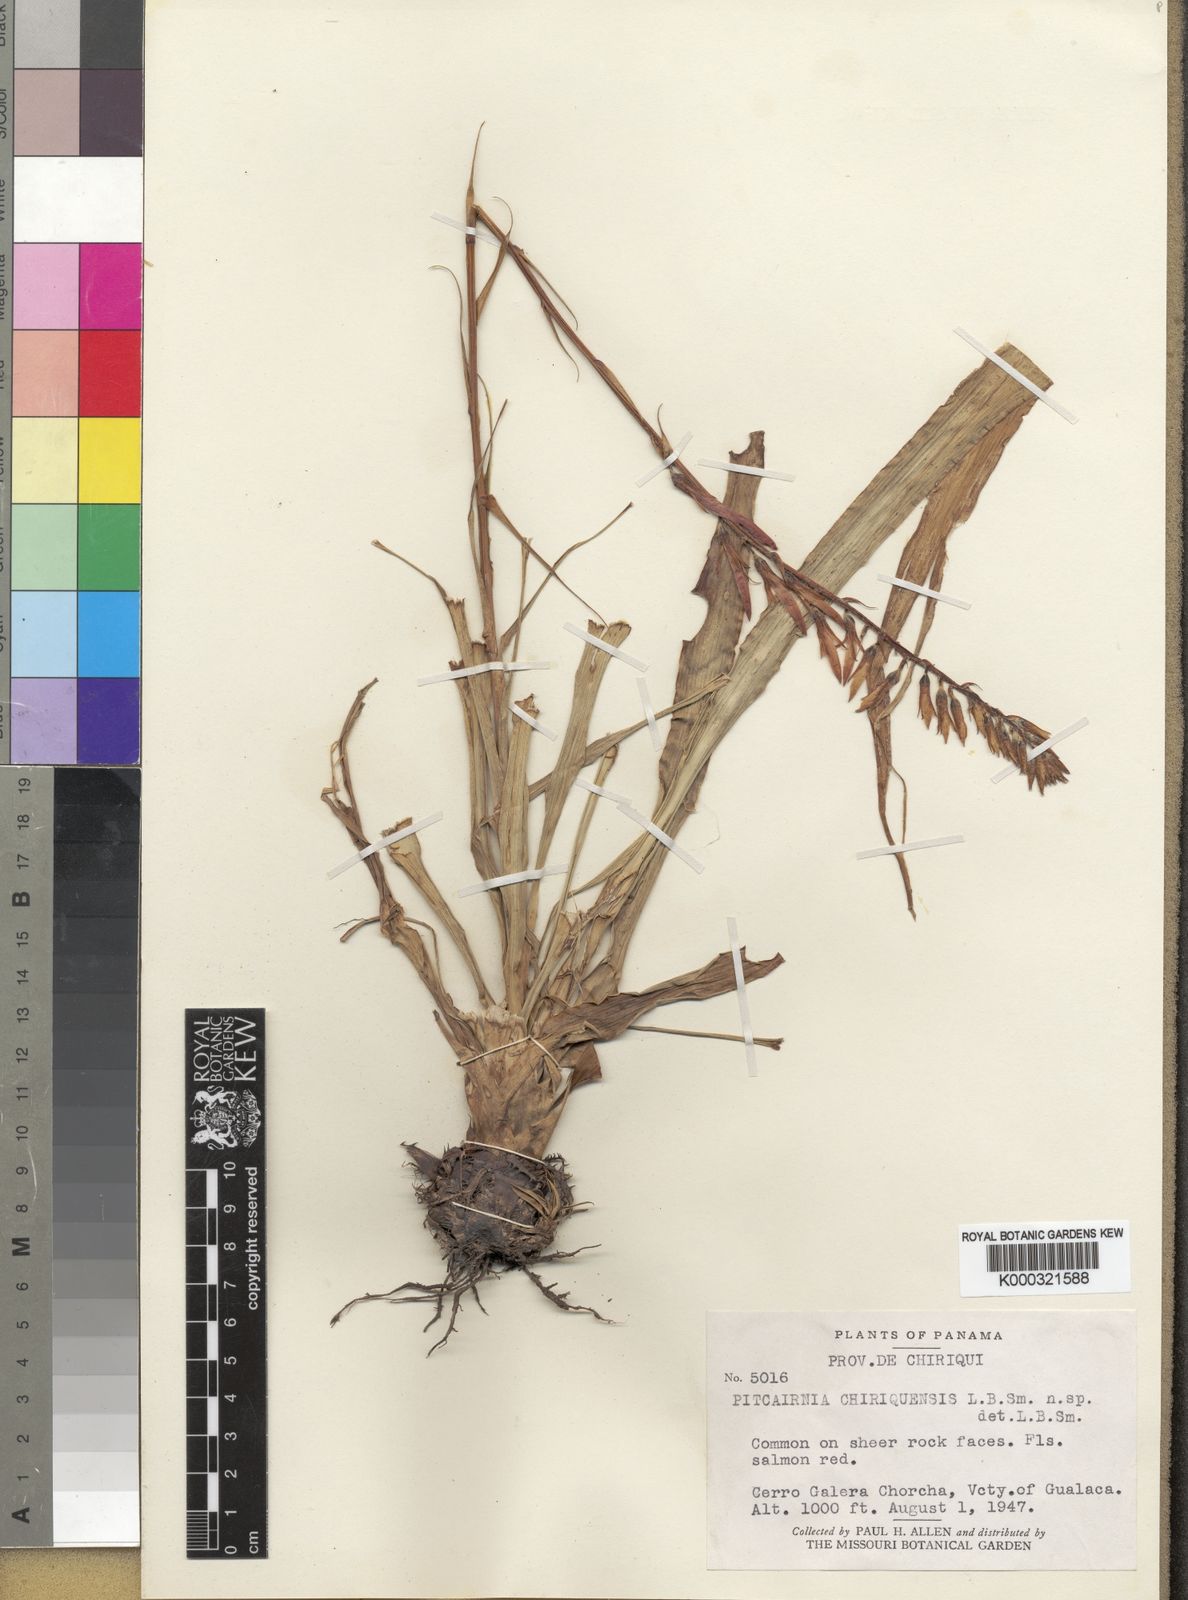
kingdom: Plantae
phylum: Tracheophyta
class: Liliopsida
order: Poales
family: Bromeliaceae
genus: Pitcairnia
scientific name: Pitcairnia chiriquensis
